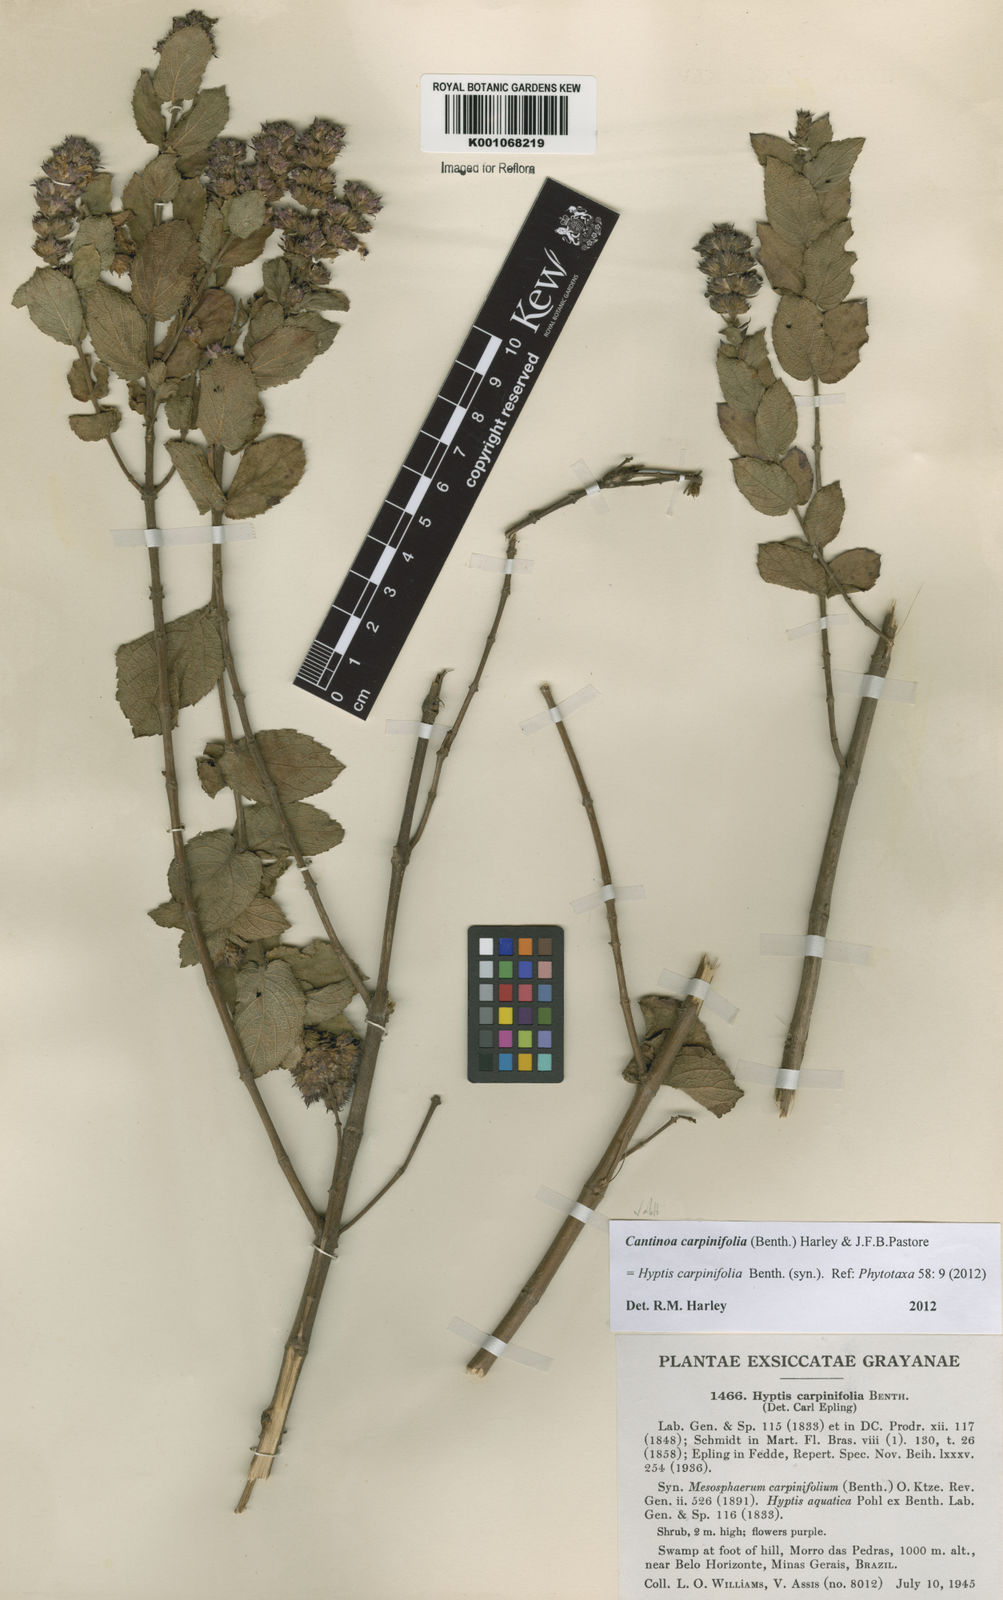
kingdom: Plantae
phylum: Tracheophyta
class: Magnoliopsida
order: Lamiales
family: Lamiaceae
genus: Cantinoa
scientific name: Cantinoa carpinifolia
